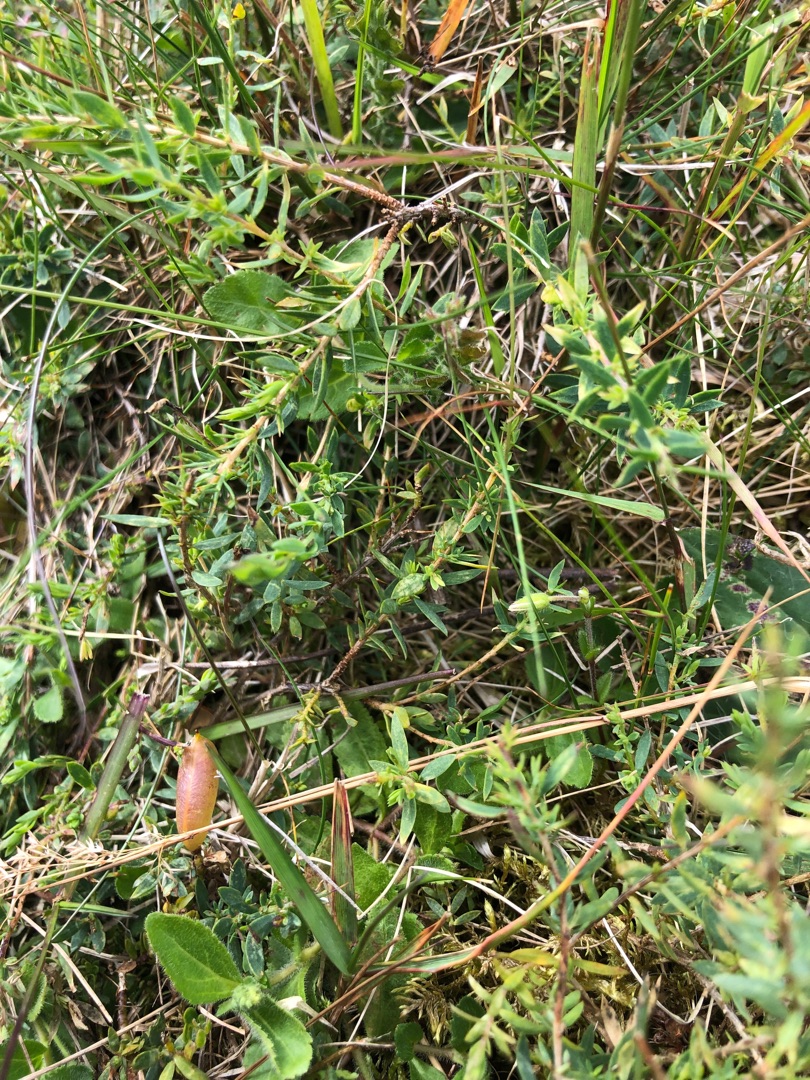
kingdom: Plantae
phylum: Tracheophyta
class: Magnoliopsida
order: Fabales
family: Fabaceae
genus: Genista
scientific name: Genista anglica
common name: Engelsk visse
